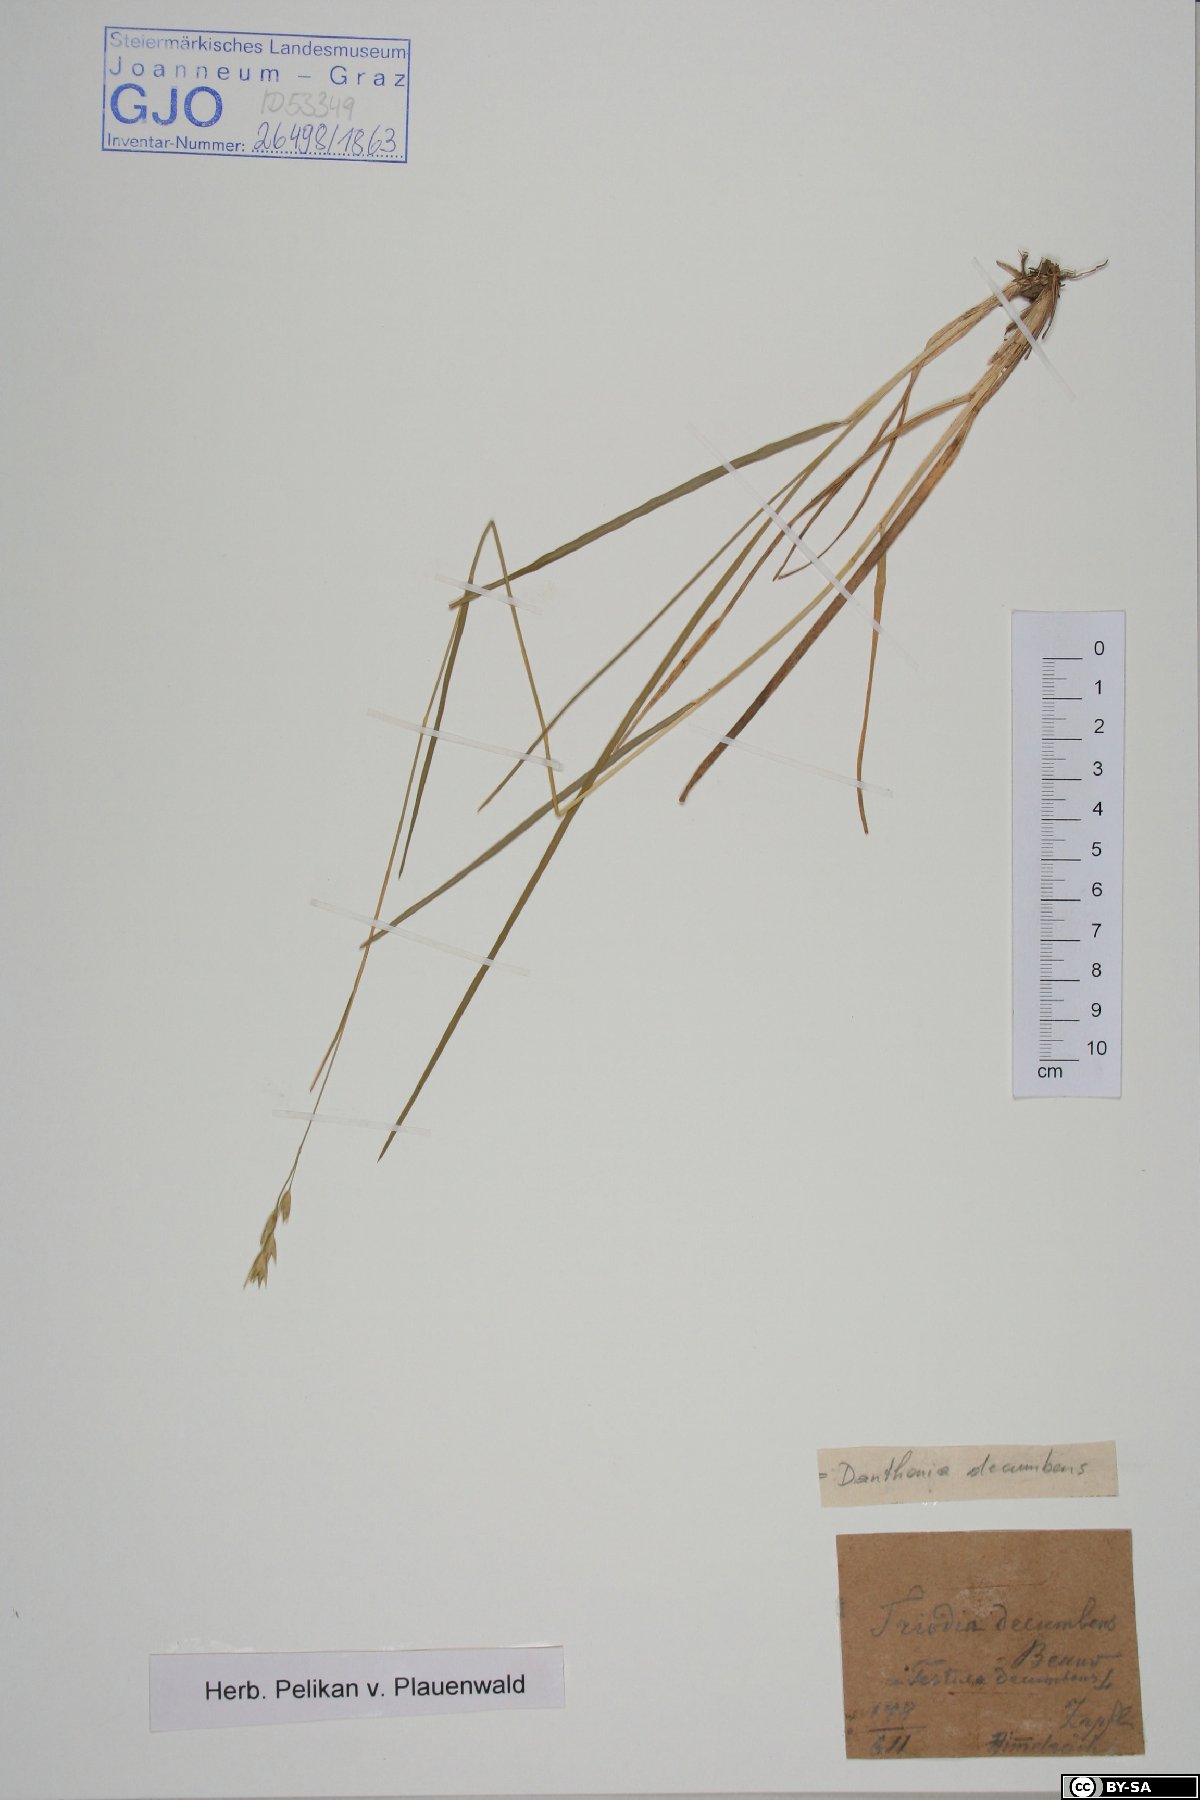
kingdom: Plantae
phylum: Tracheophyta
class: Liliopsida
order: Poales
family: Poaceae
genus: Danthonia
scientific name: Danthonia decumbens
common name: Common heathgrass
